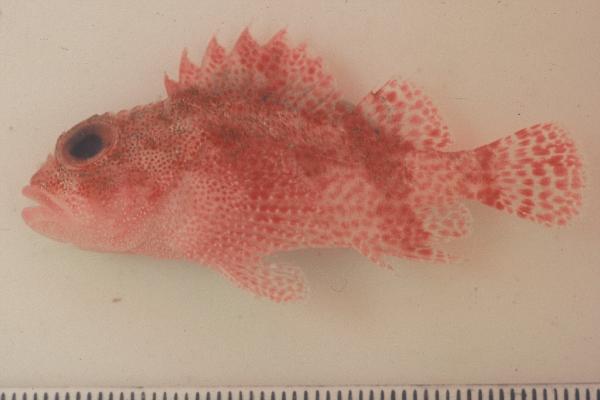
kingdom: Animalia
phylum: Chordata
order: Scorpaeniformes
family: Scorpaenidae
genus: Sebastapistes
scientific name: Sebastapistes
